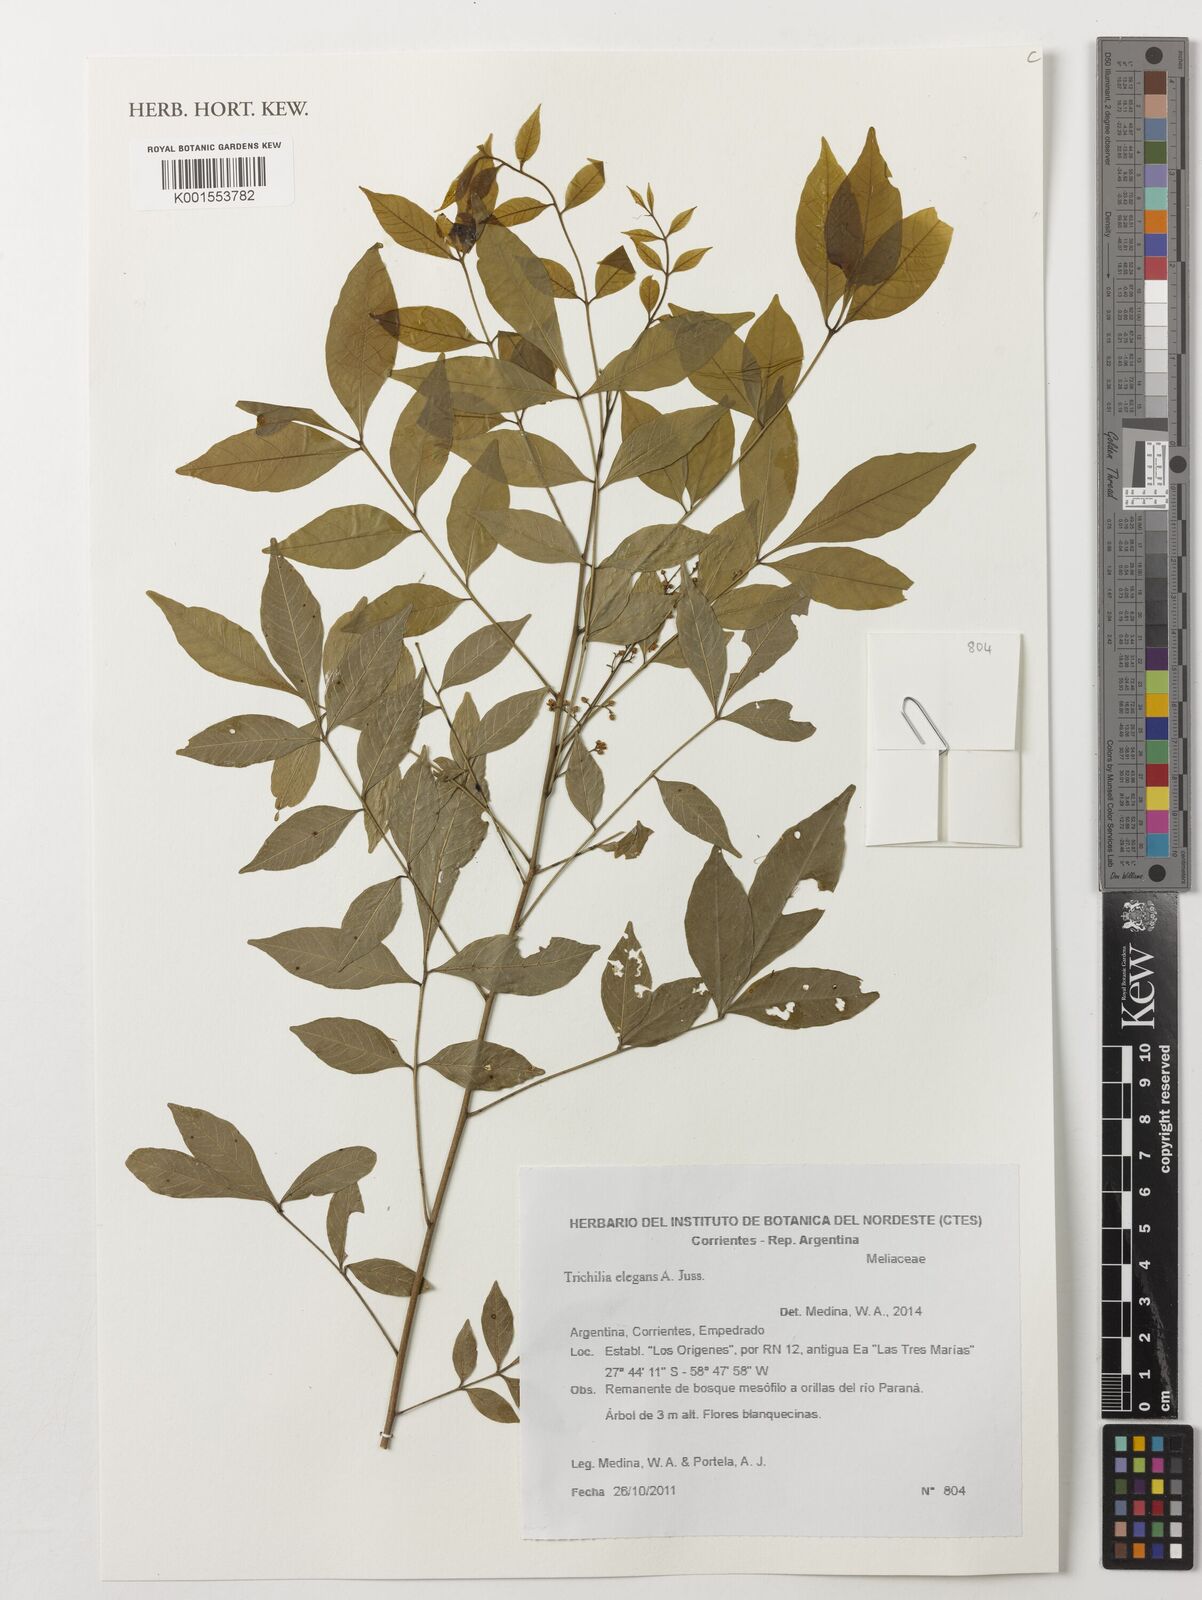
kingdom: Plantae
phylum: Tracheophyta
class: Magnoliopsida
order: Sapindales
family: Meliaceae
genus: Trichilia
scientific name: Trichilia elegans
